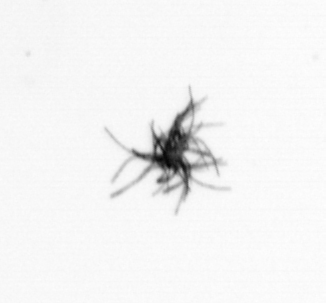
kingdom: Bacteria
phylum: Cyanobacteria
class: Cyanobacteriia
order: Cyanobacteriales
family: Microcoleaceae
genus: Trichodesmium
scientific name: Trichodesmium
